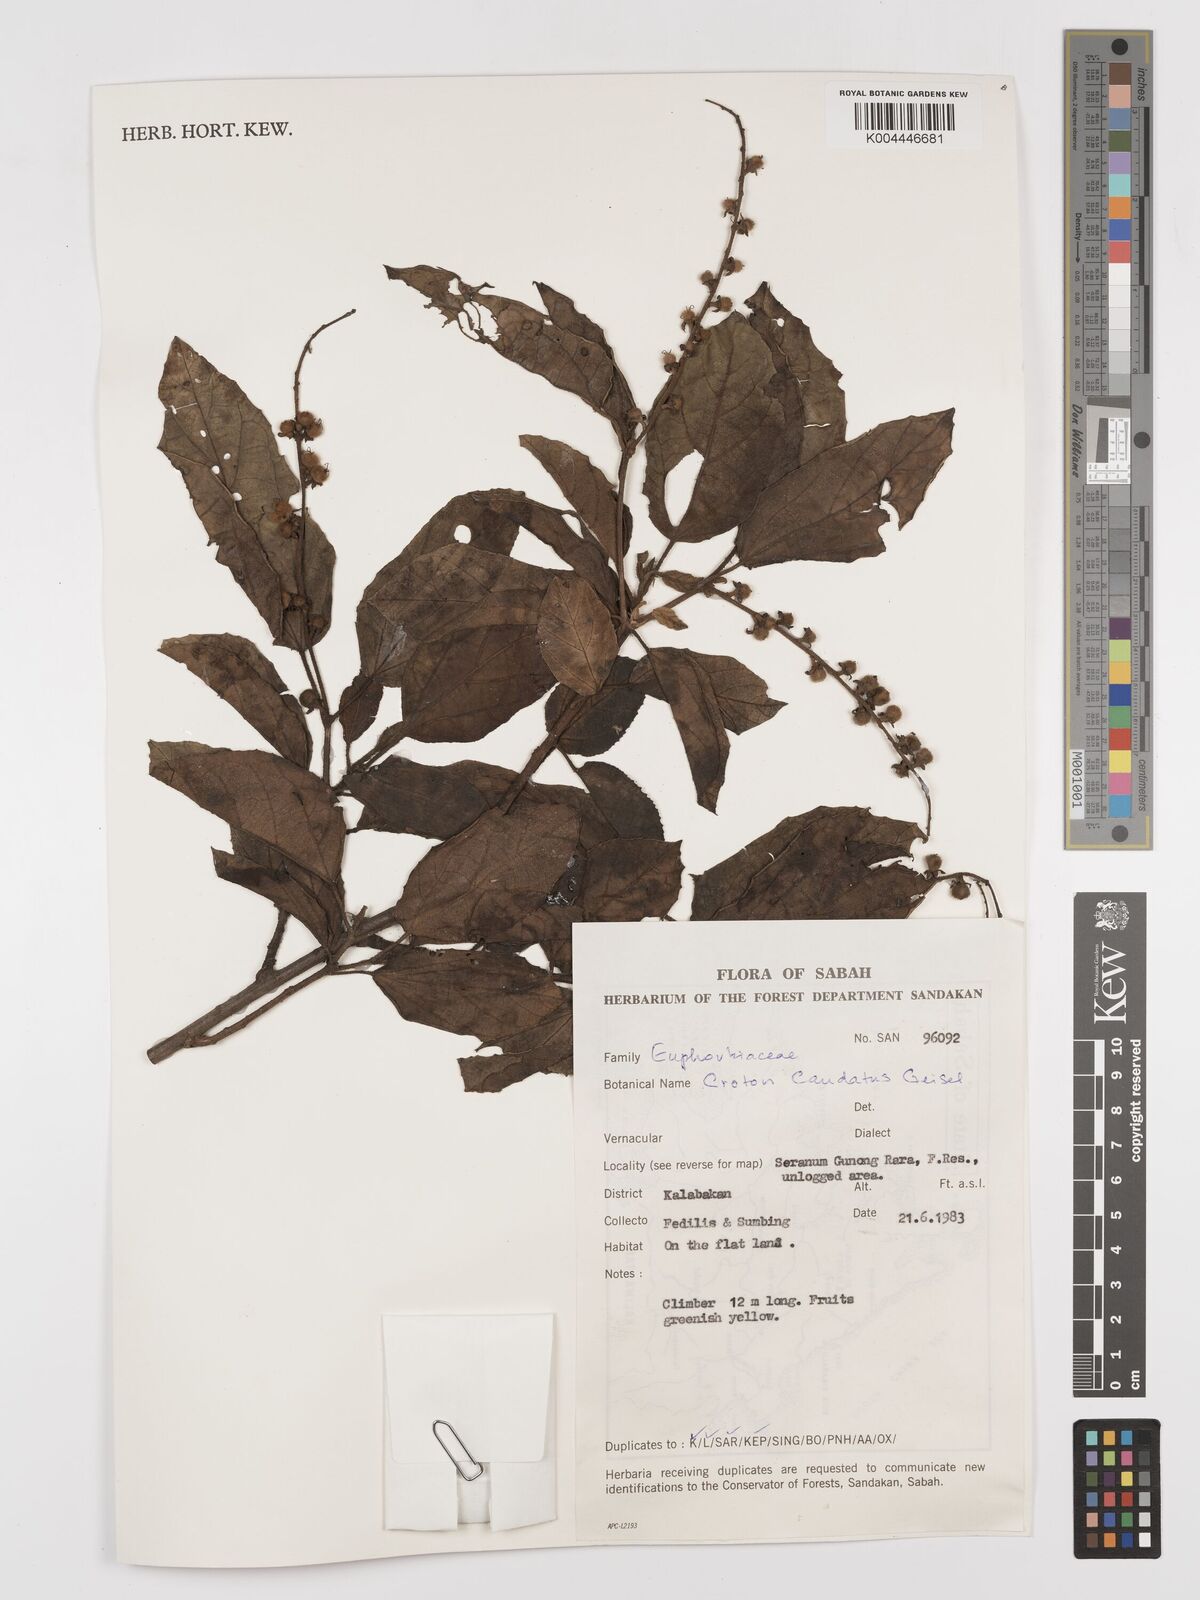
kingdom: Plantae
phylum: Tracheophyta
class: Magnoliopsida
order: Malpighiales
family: Euphorbiaceae
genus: Croton
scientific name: Croton caudatus
